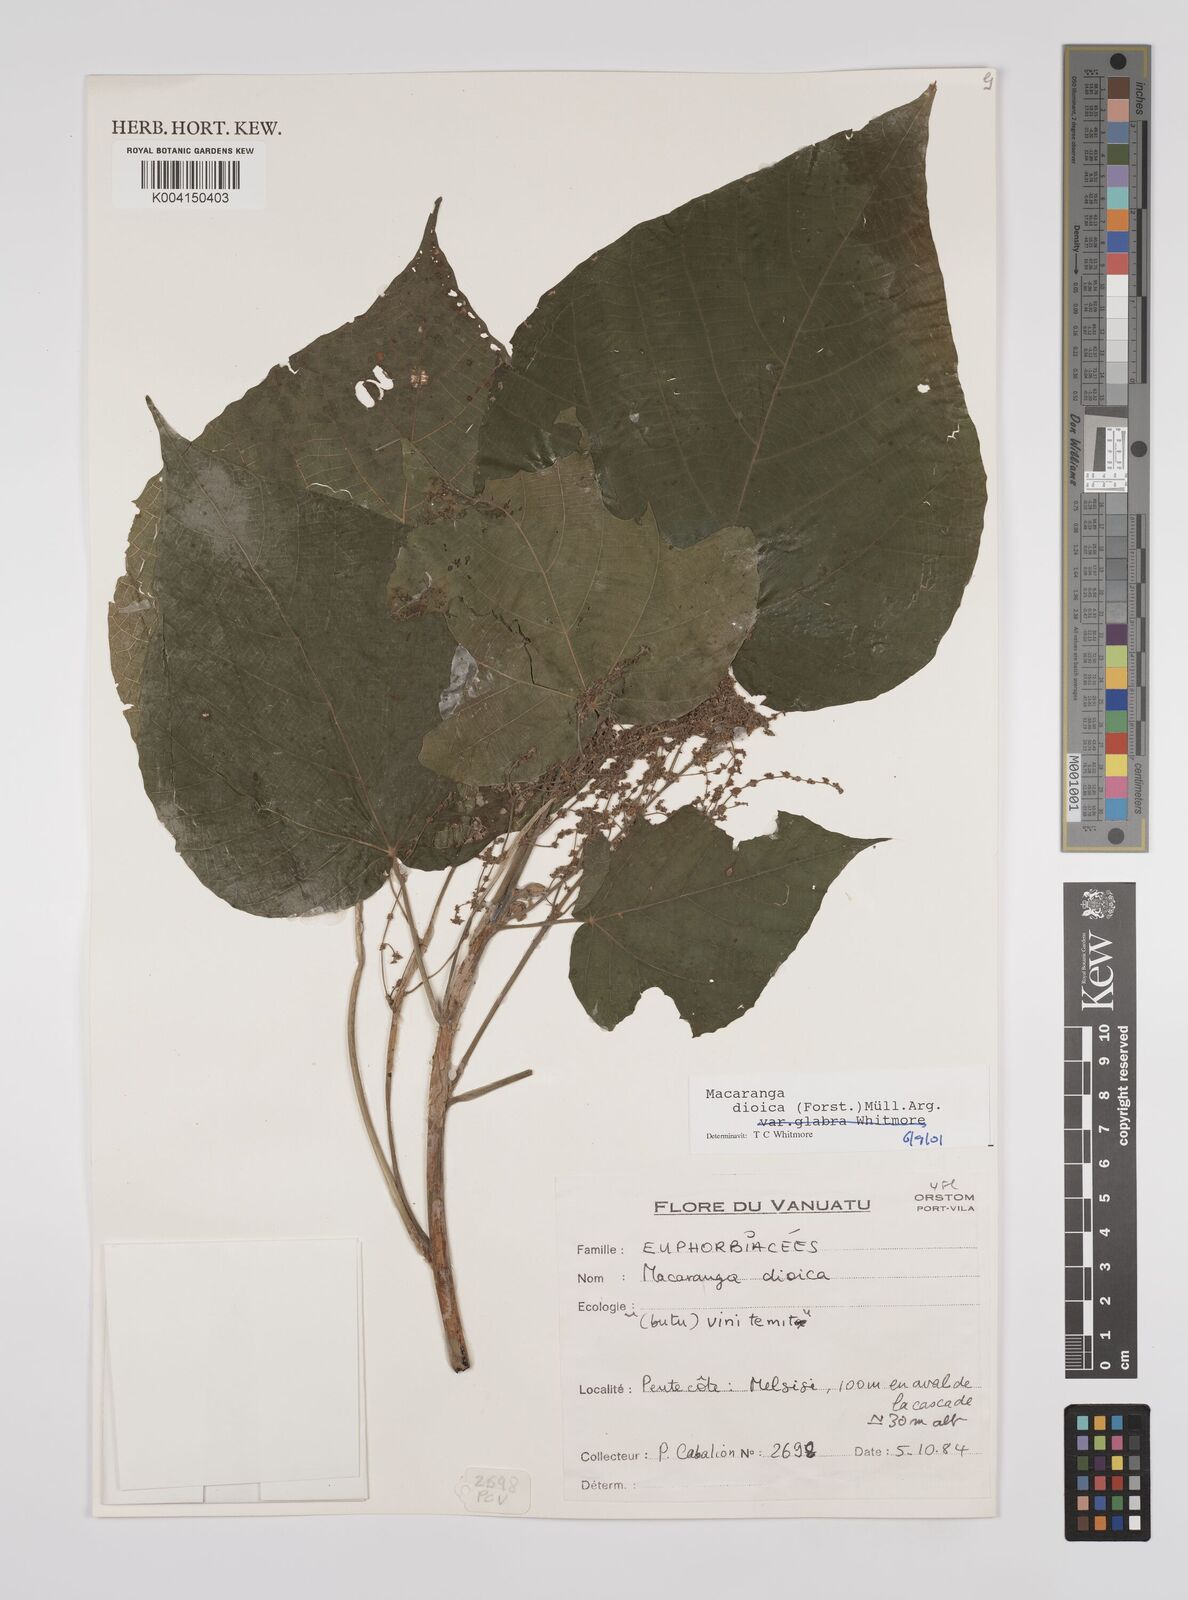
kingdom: Plantae
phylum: Tracheophyta
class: Magnoliopsida
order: Malpighiales
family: Euphorbiaceae
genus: Macaranga
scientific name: Macaranga dioica
